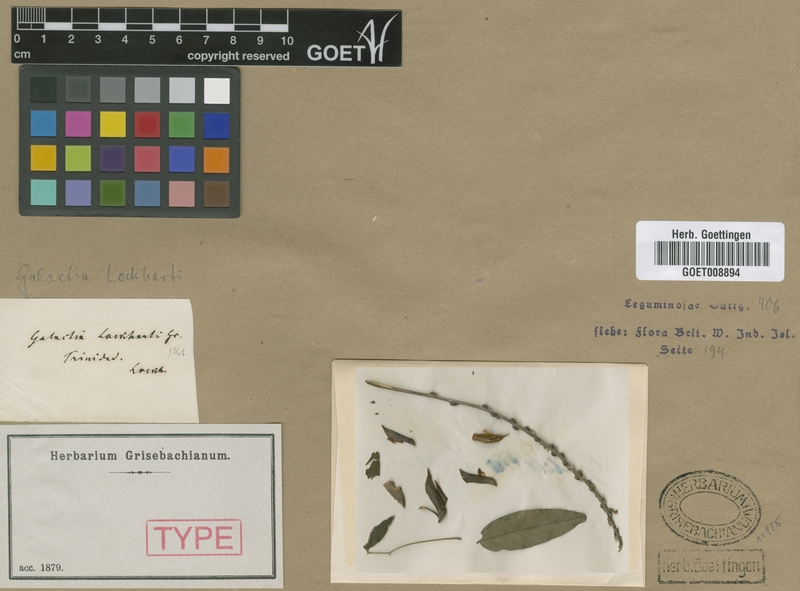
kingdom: Plantae
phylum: Tracheophyta
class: Magnoliopsida
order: Fabales
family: Fabaceae
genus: Galactia
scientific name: Galactia lockhartii
